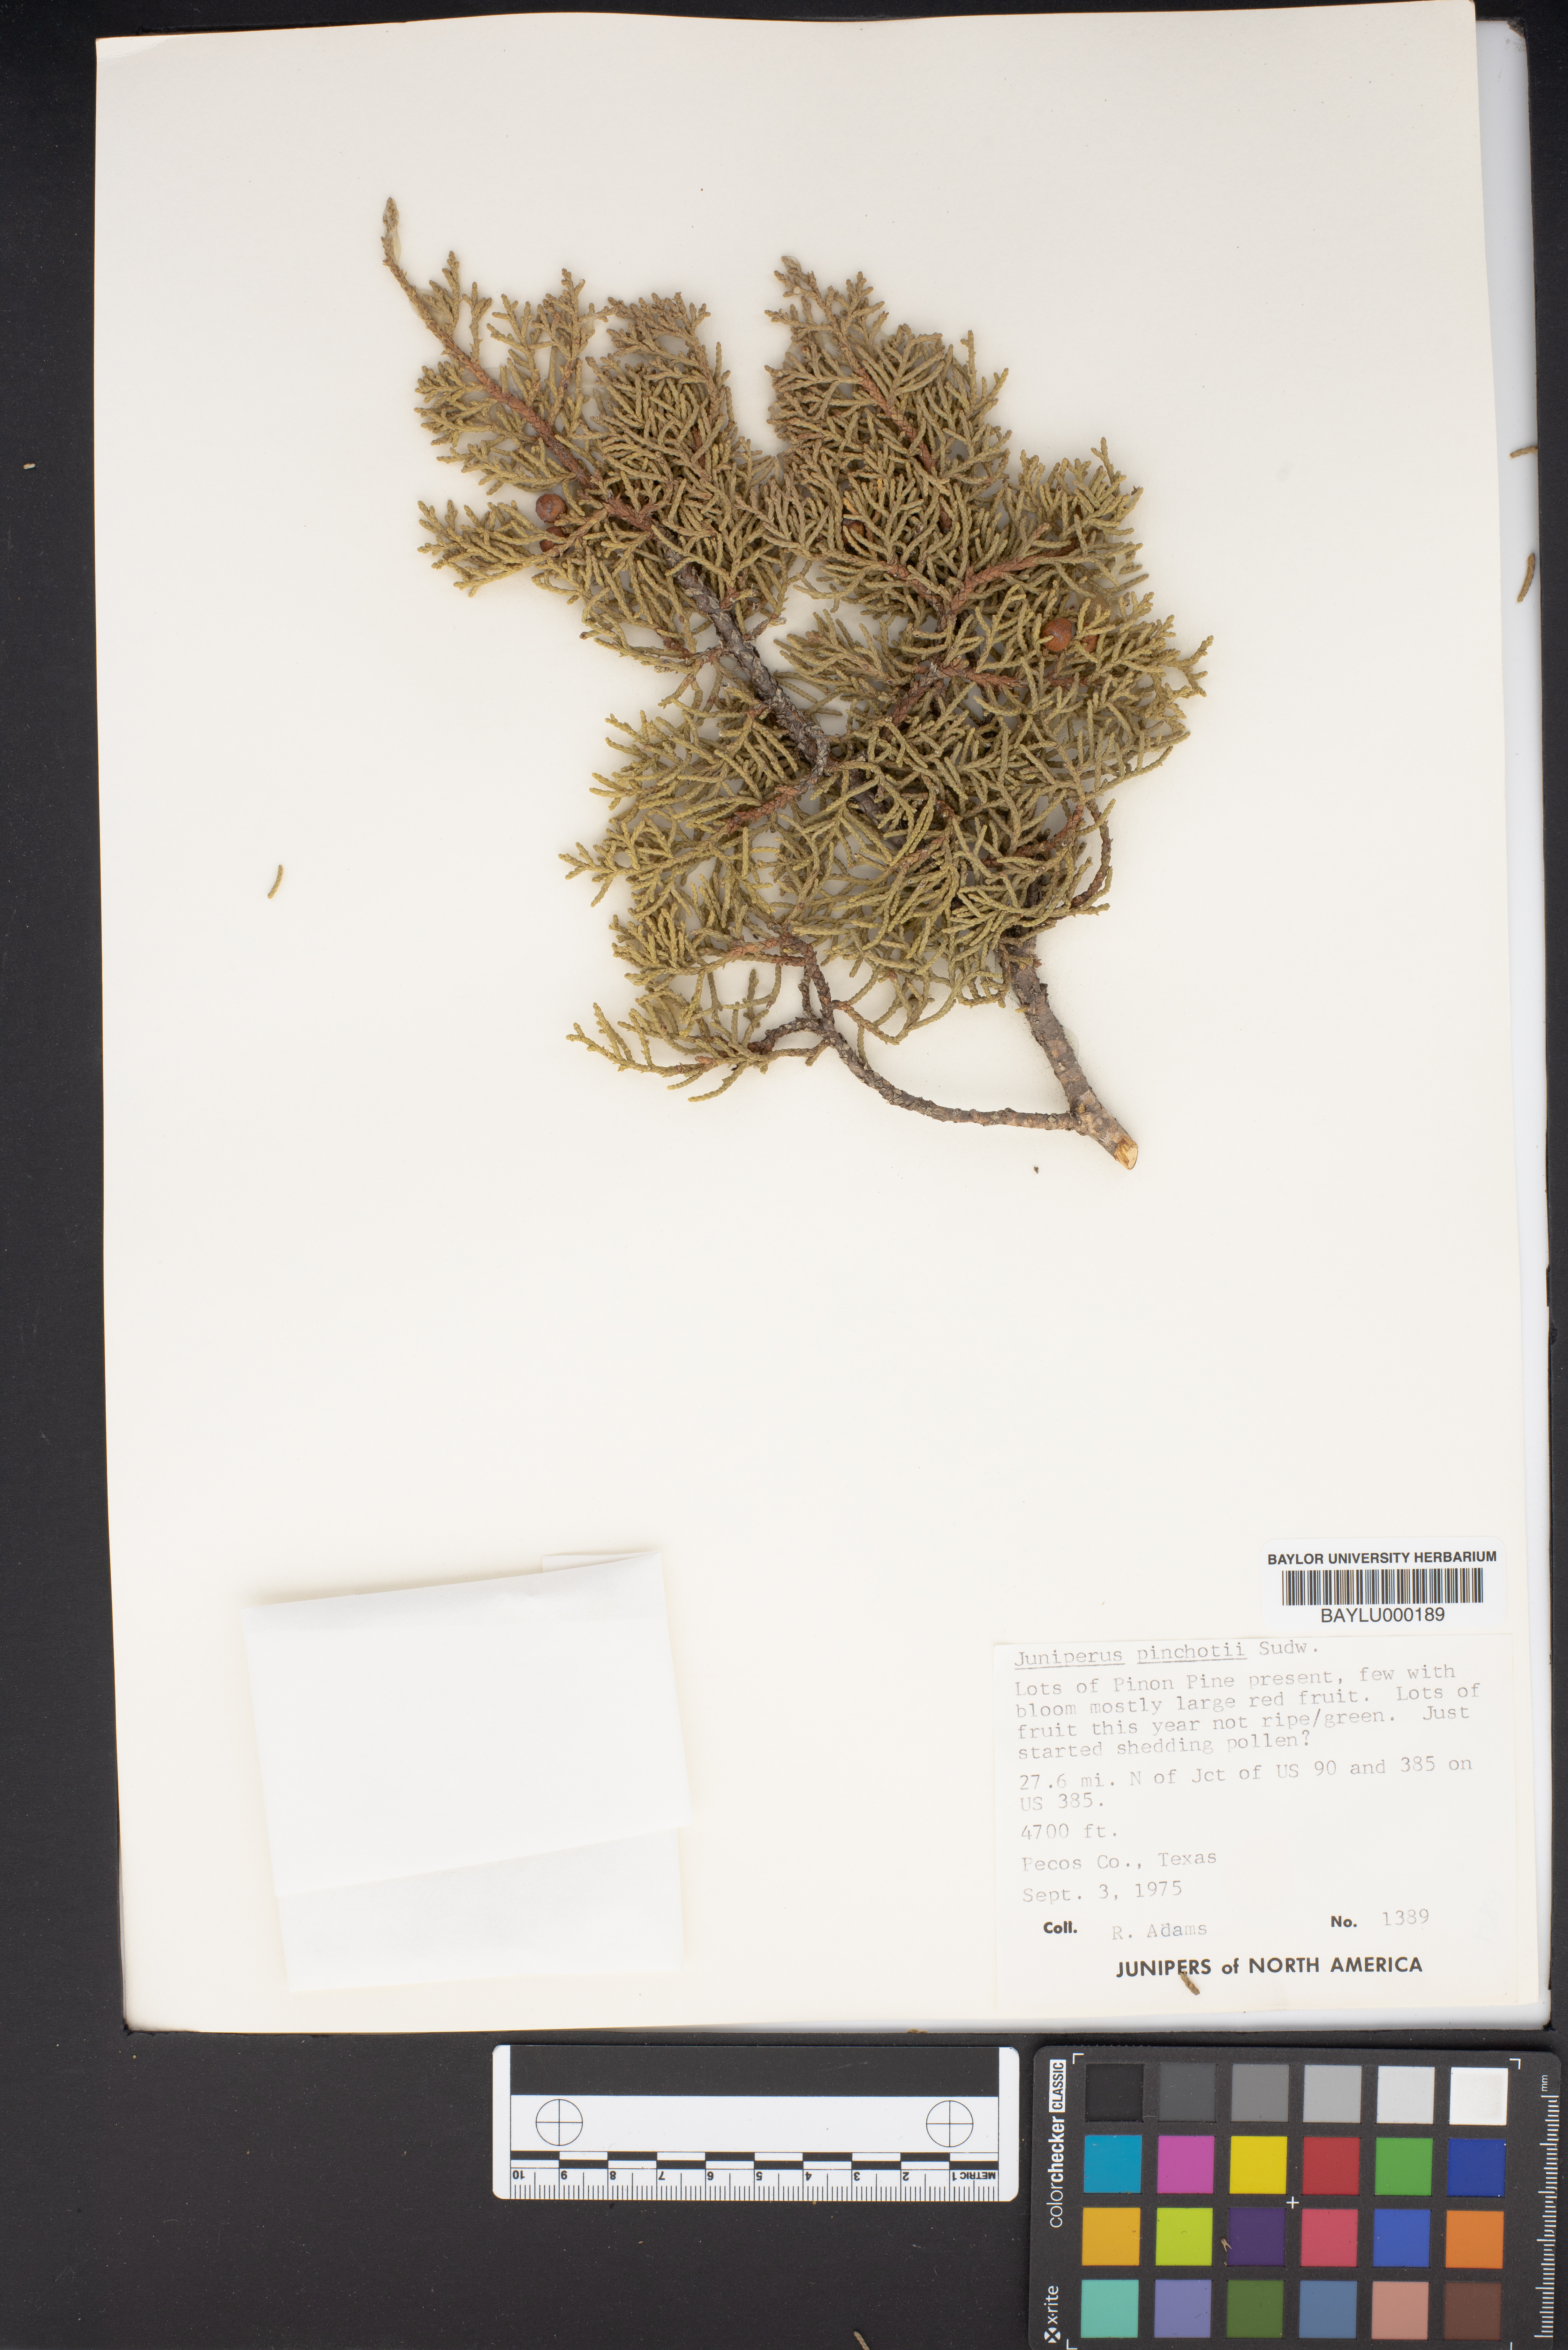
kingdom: Plantae
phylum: Tracheophyta
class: Pinopsida
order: Pinales
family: Cupressaceae
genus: Juniperus
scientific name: Juniperus pinchotii
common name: Pinchot juniper
